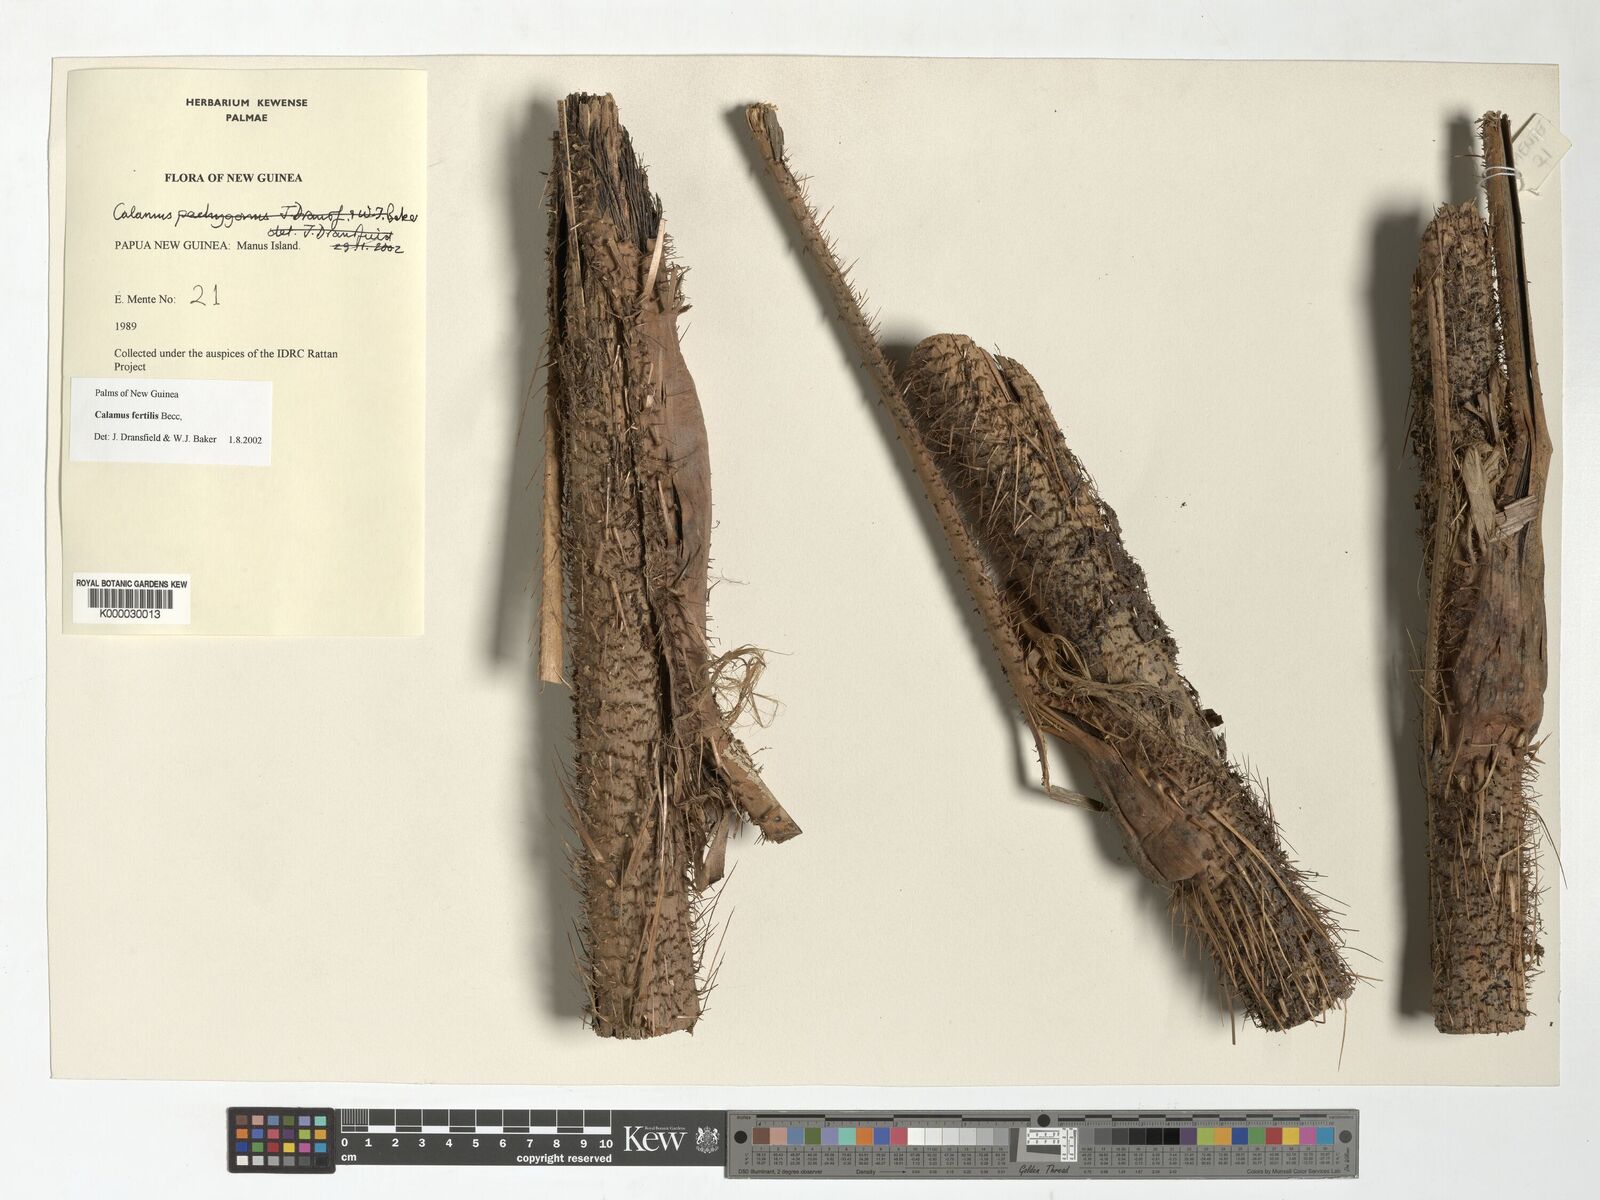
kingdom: Plantae
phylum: Tracheophyta
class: Liliopsida
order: Arecales
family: Arecaceae
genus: Calamus
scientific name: Calamus fertilis
